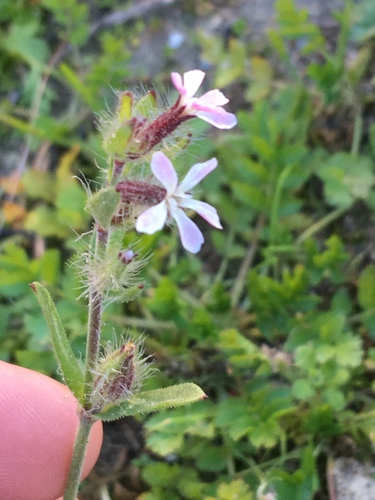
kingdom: Plantae
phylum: Tracheophyta
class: Magnoliopsida
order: Caryophyllales
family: Caryophyllaceae
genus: Silene
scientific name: Silene gallica
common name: Small-flowered catchfly
